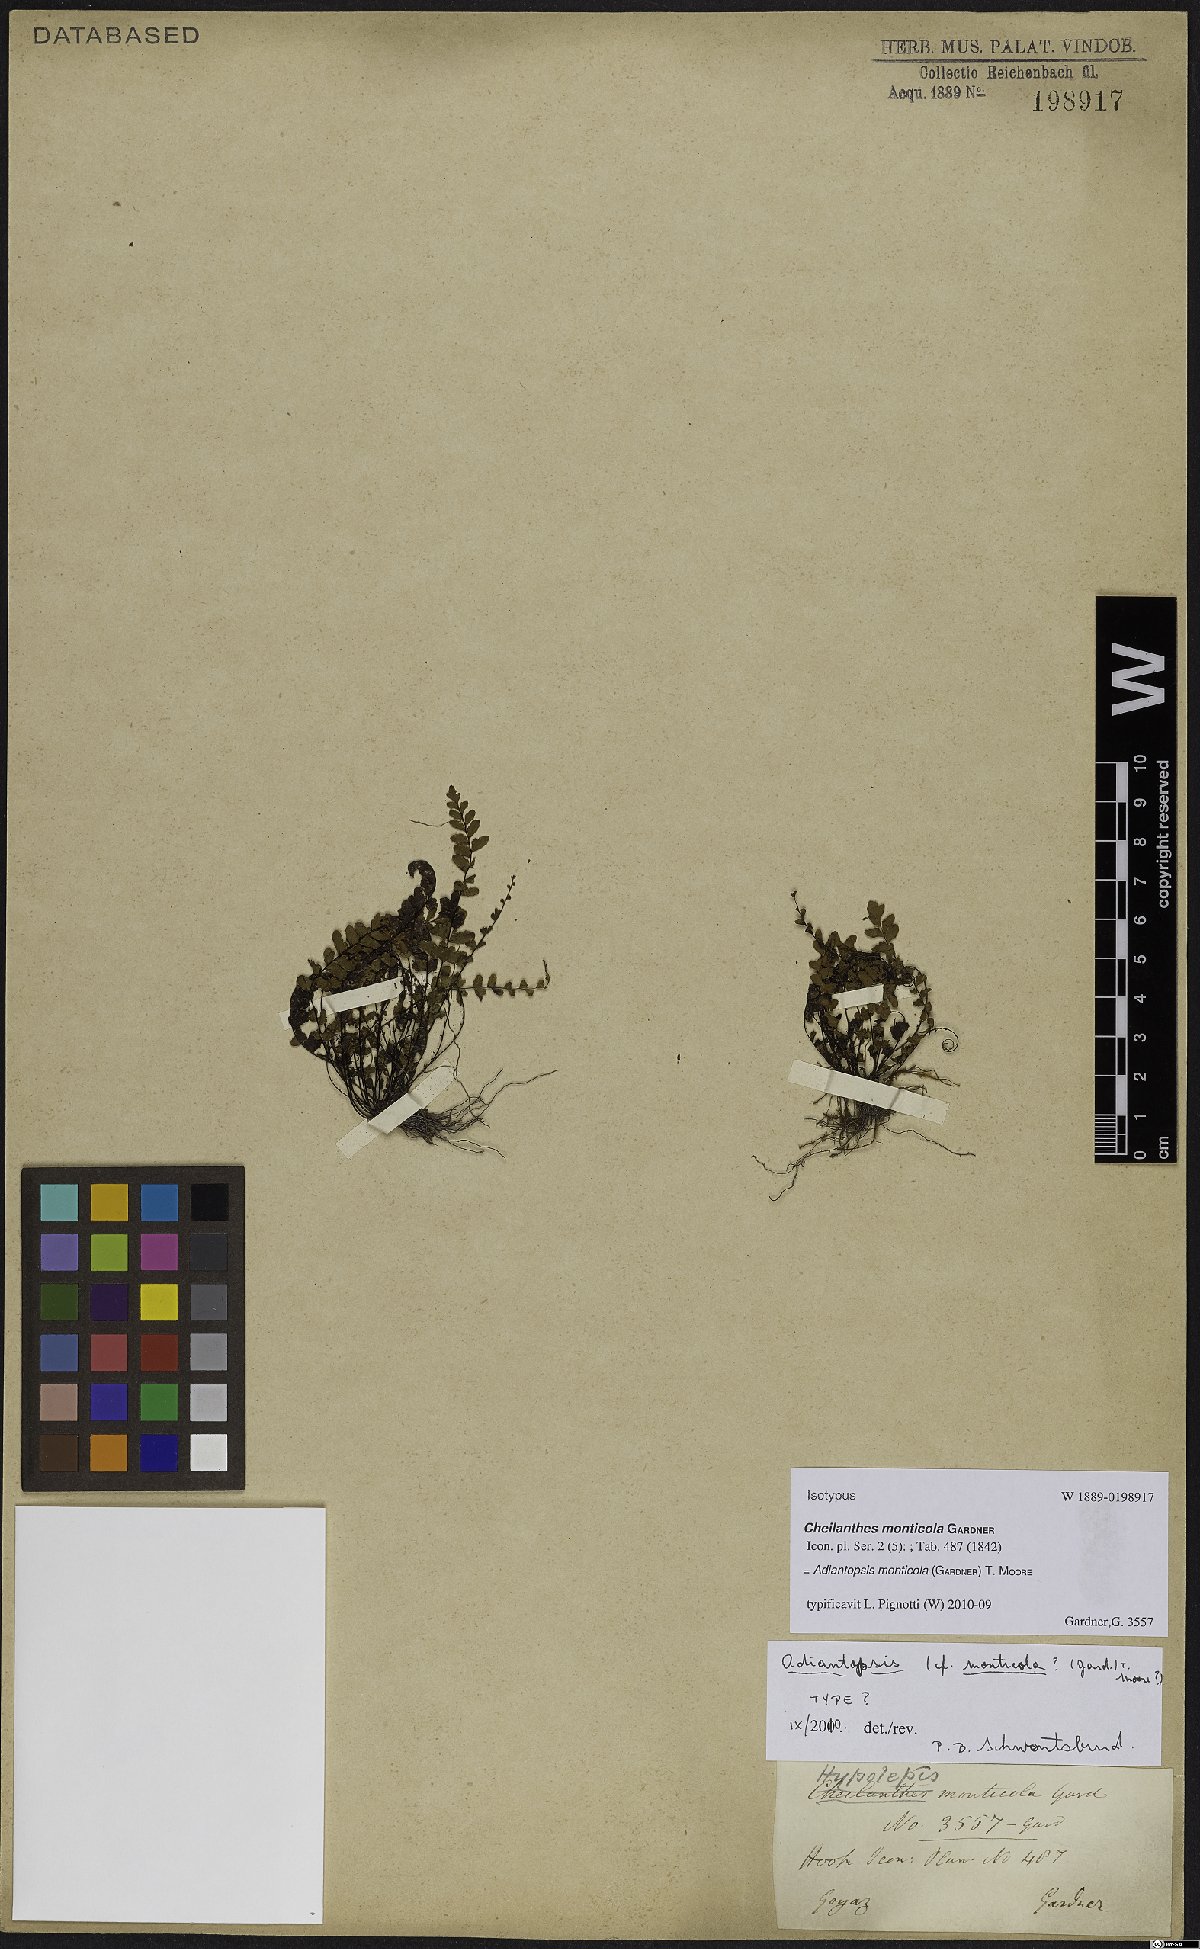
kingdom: Plantae
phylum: Tracheophyta
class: Polypodiopsida
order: Polypodiales
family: Pteridaceae
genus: Adiantopsis
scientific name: Adiantopsis monticola
